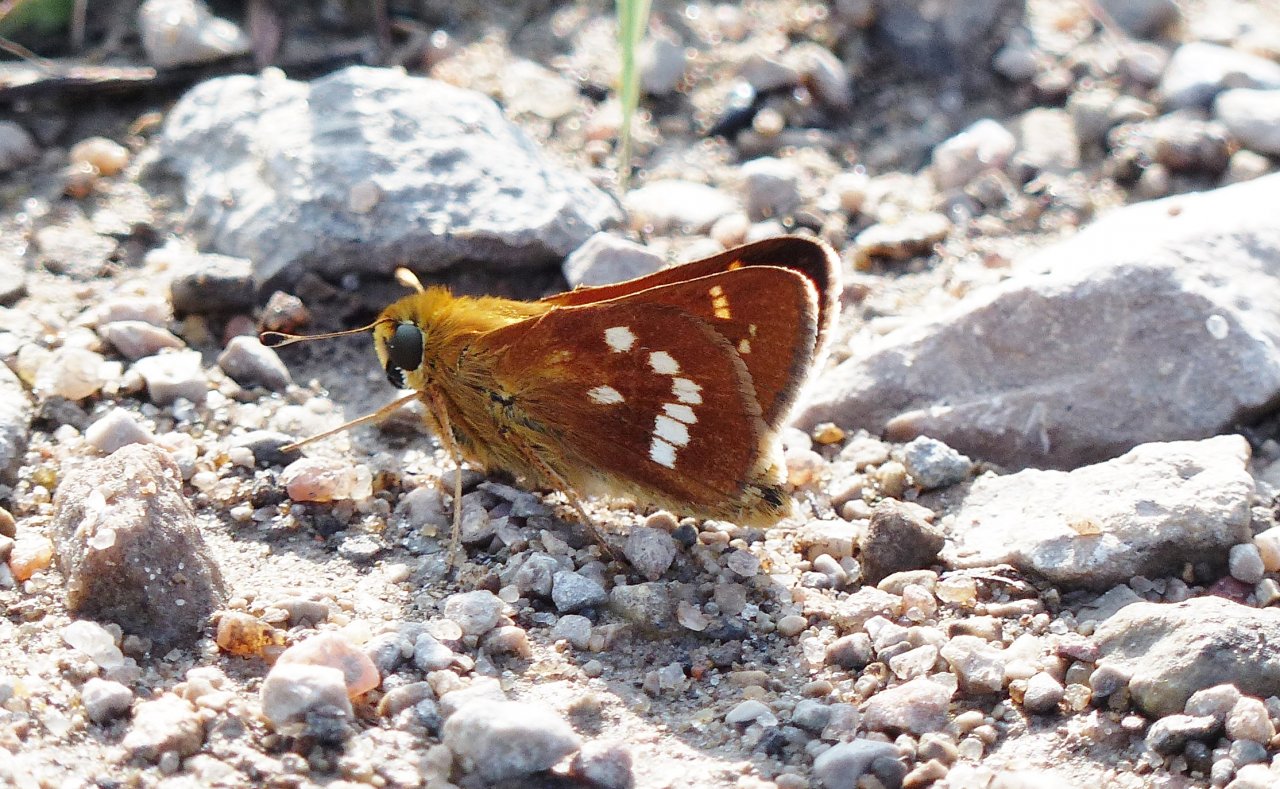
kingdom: Animalia
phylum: Arthropoda
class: Insecta
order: Lepidoptera
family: Hesperiidae
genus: Hesperia
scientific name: Hesperia leonardus
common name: Leonard's Skipper
